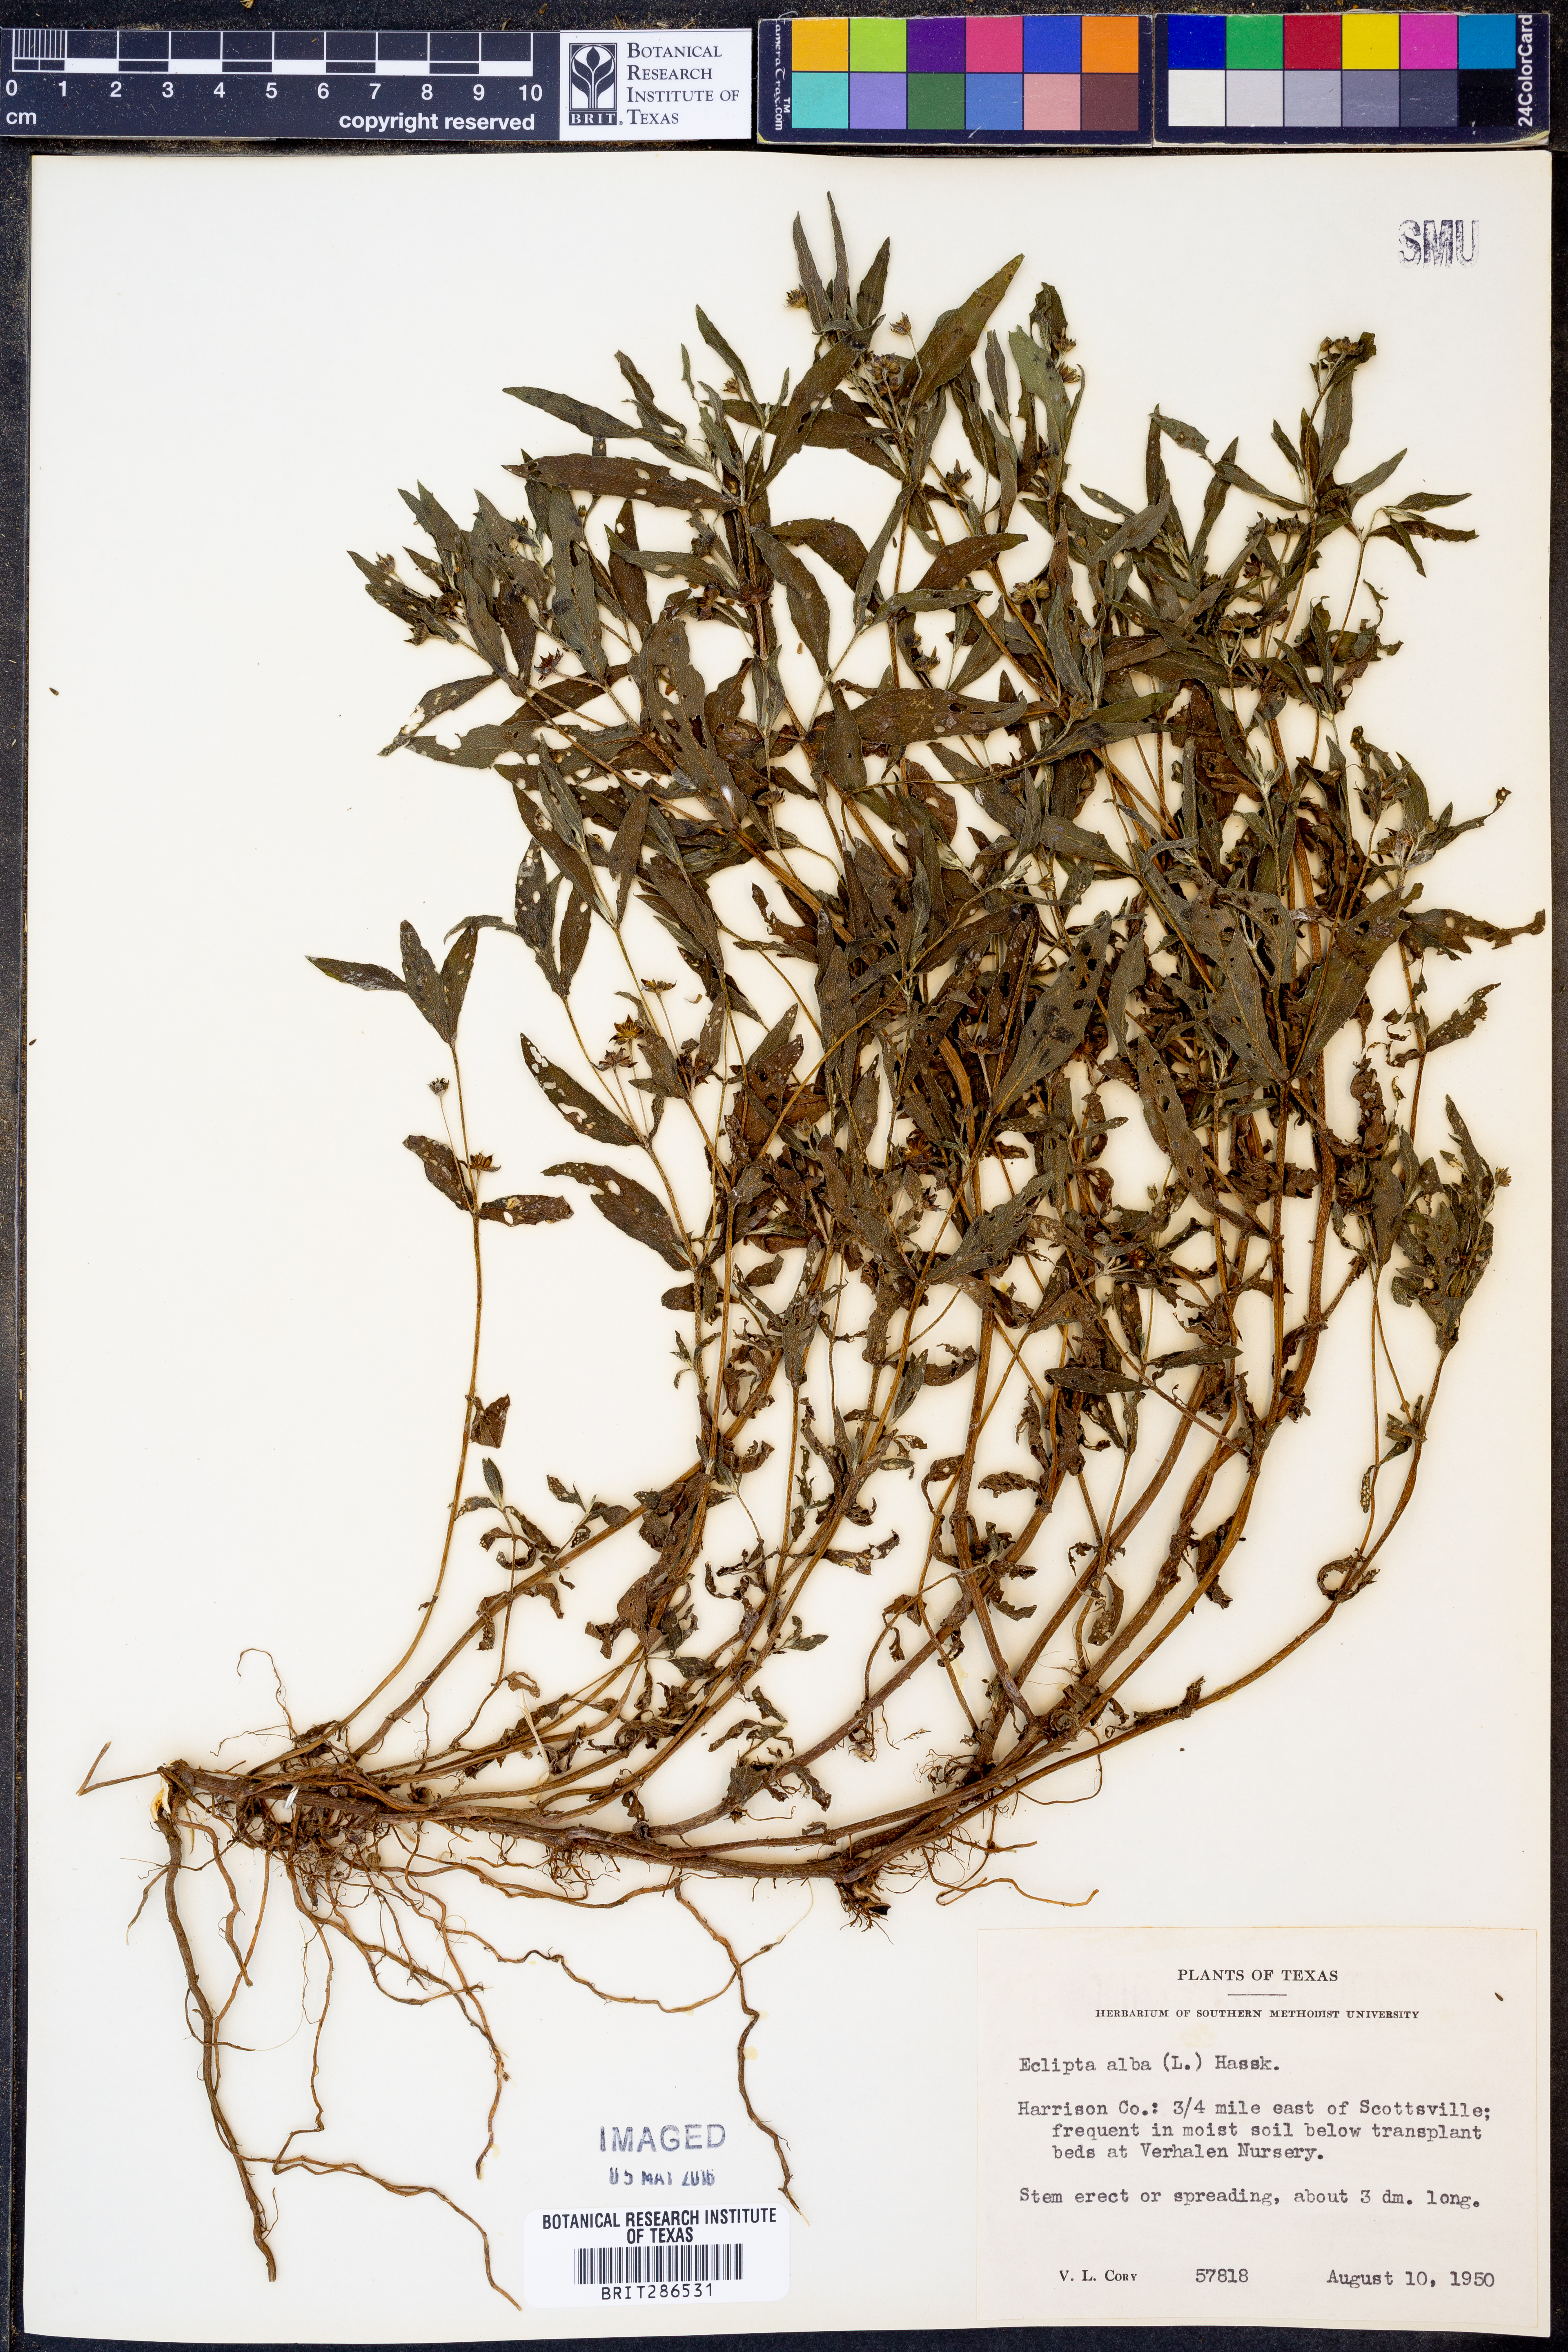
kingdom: Plantae
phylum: Tracheophyta
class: Magnoliopsida
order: Asterales
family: Asteraceae
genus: Eclipta
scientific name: Eclipta alba
